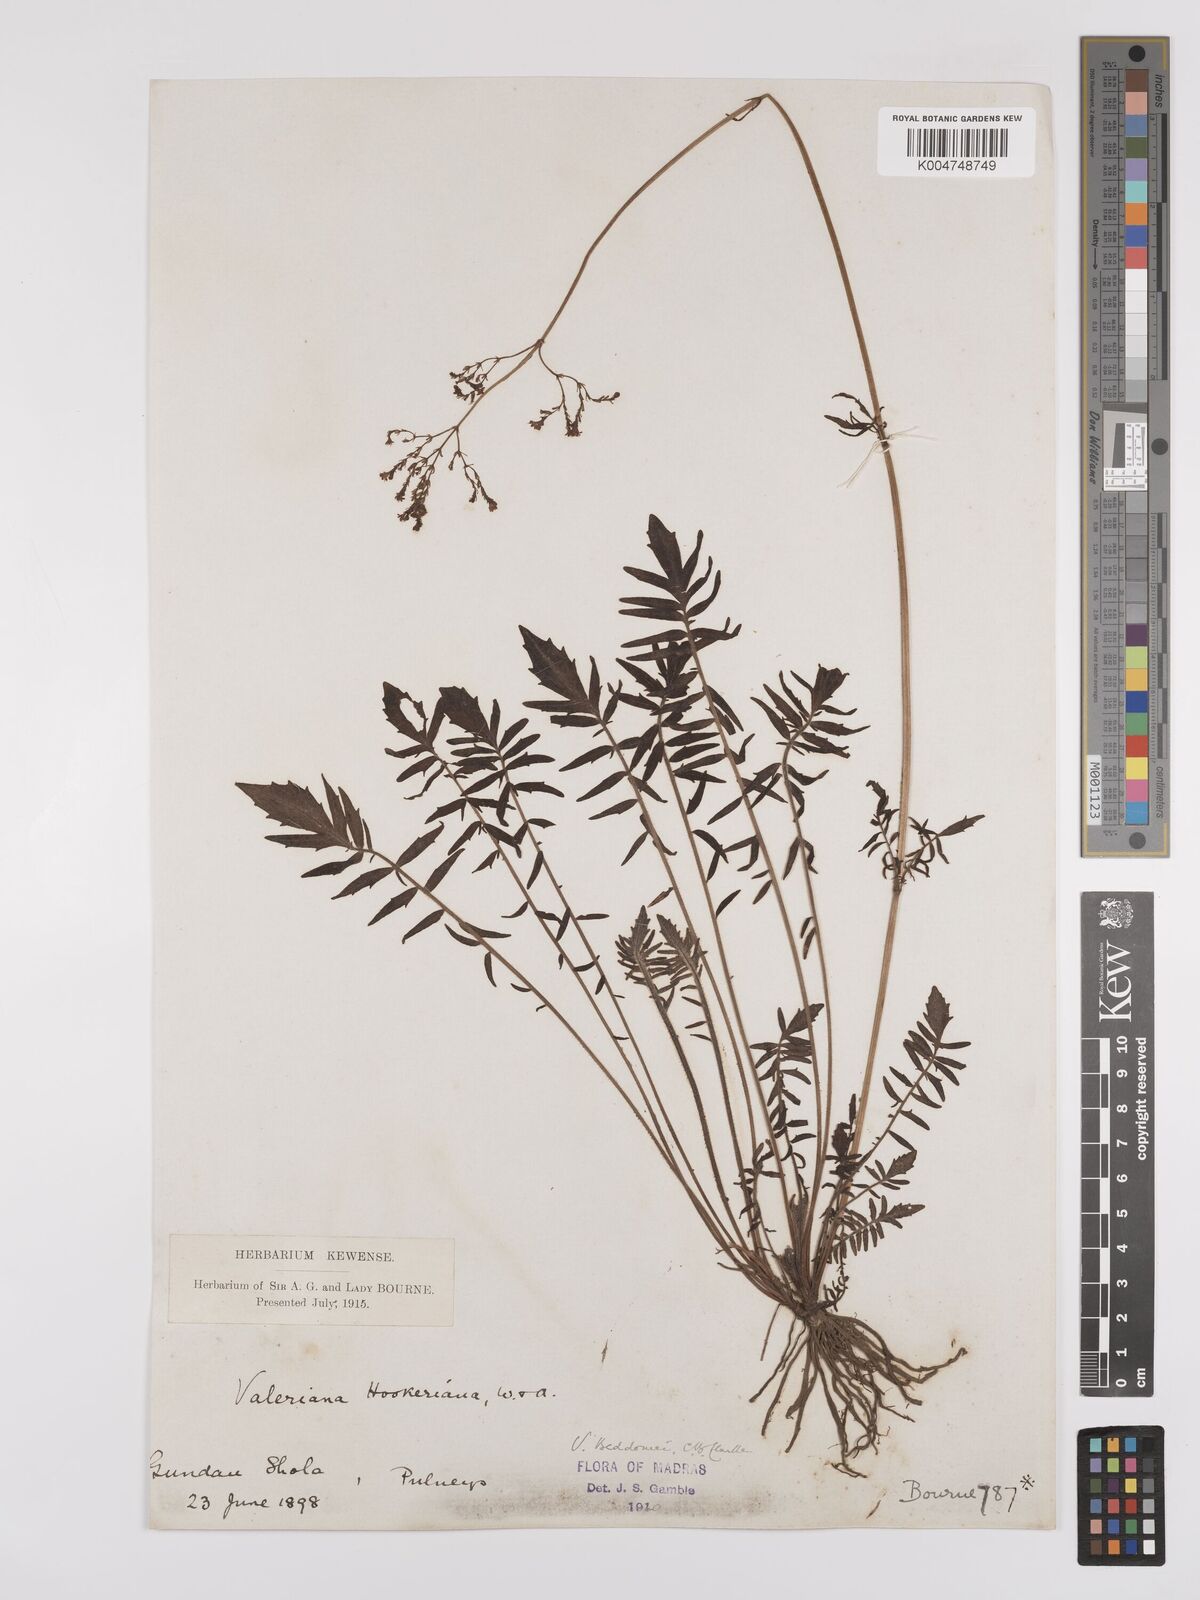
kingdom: Plantae
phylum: Tracheophyta
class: Magnoliopsida
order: Dipsacales
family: Caprifoliaceae
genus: Valeriana
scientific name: Valeriana beddomei
